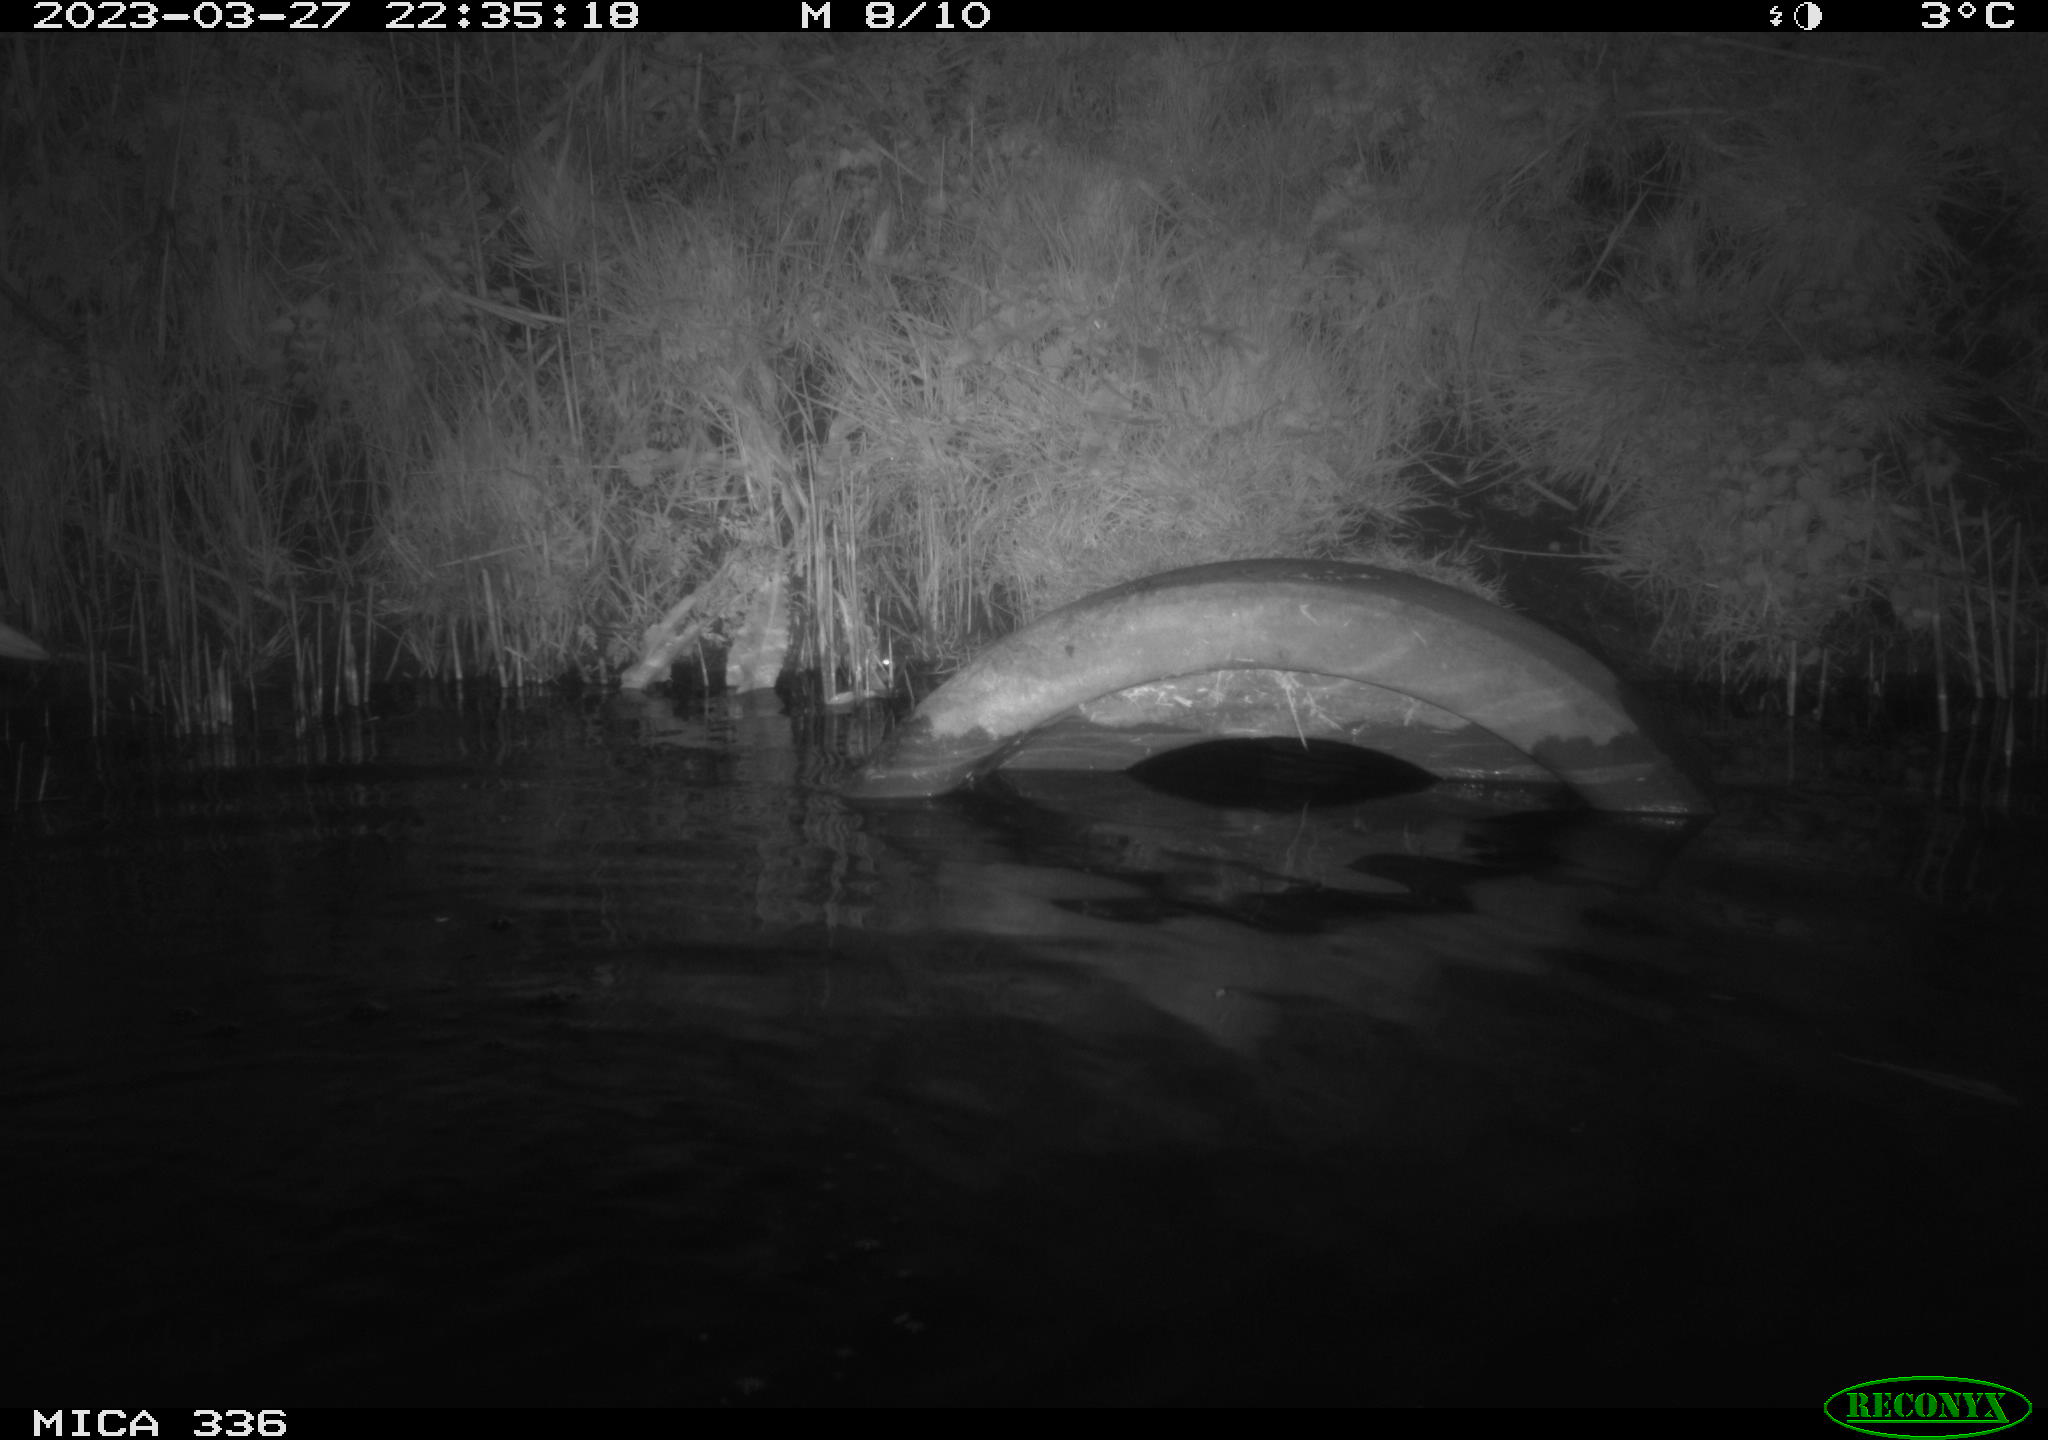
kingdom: Animalia
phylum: Chordata
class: Aves
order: Pelecaniformes
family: Ardeidae
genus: Ardea
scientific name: Ardea cinerea
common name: Grey heron
